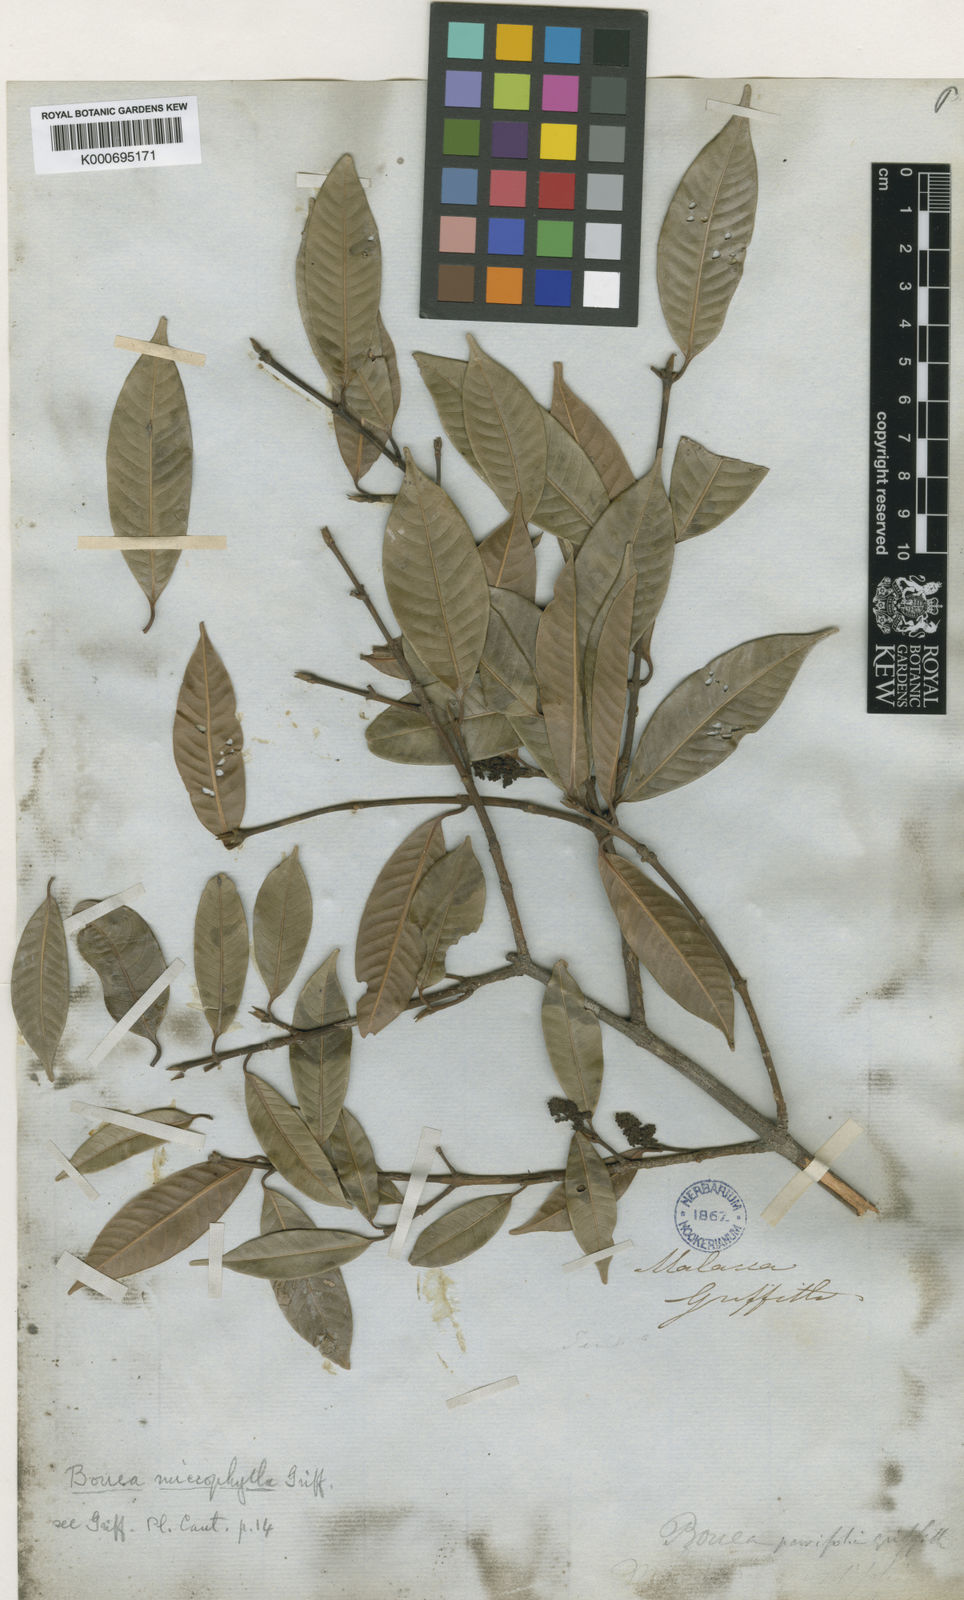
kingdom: Plantae
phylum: Tracheophyta
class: Magnoliopsida
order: Sapindales
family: Anacardiaceae
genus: Bouea
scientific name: Bouea oppositifolia
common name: Narrow-leaved kundang
